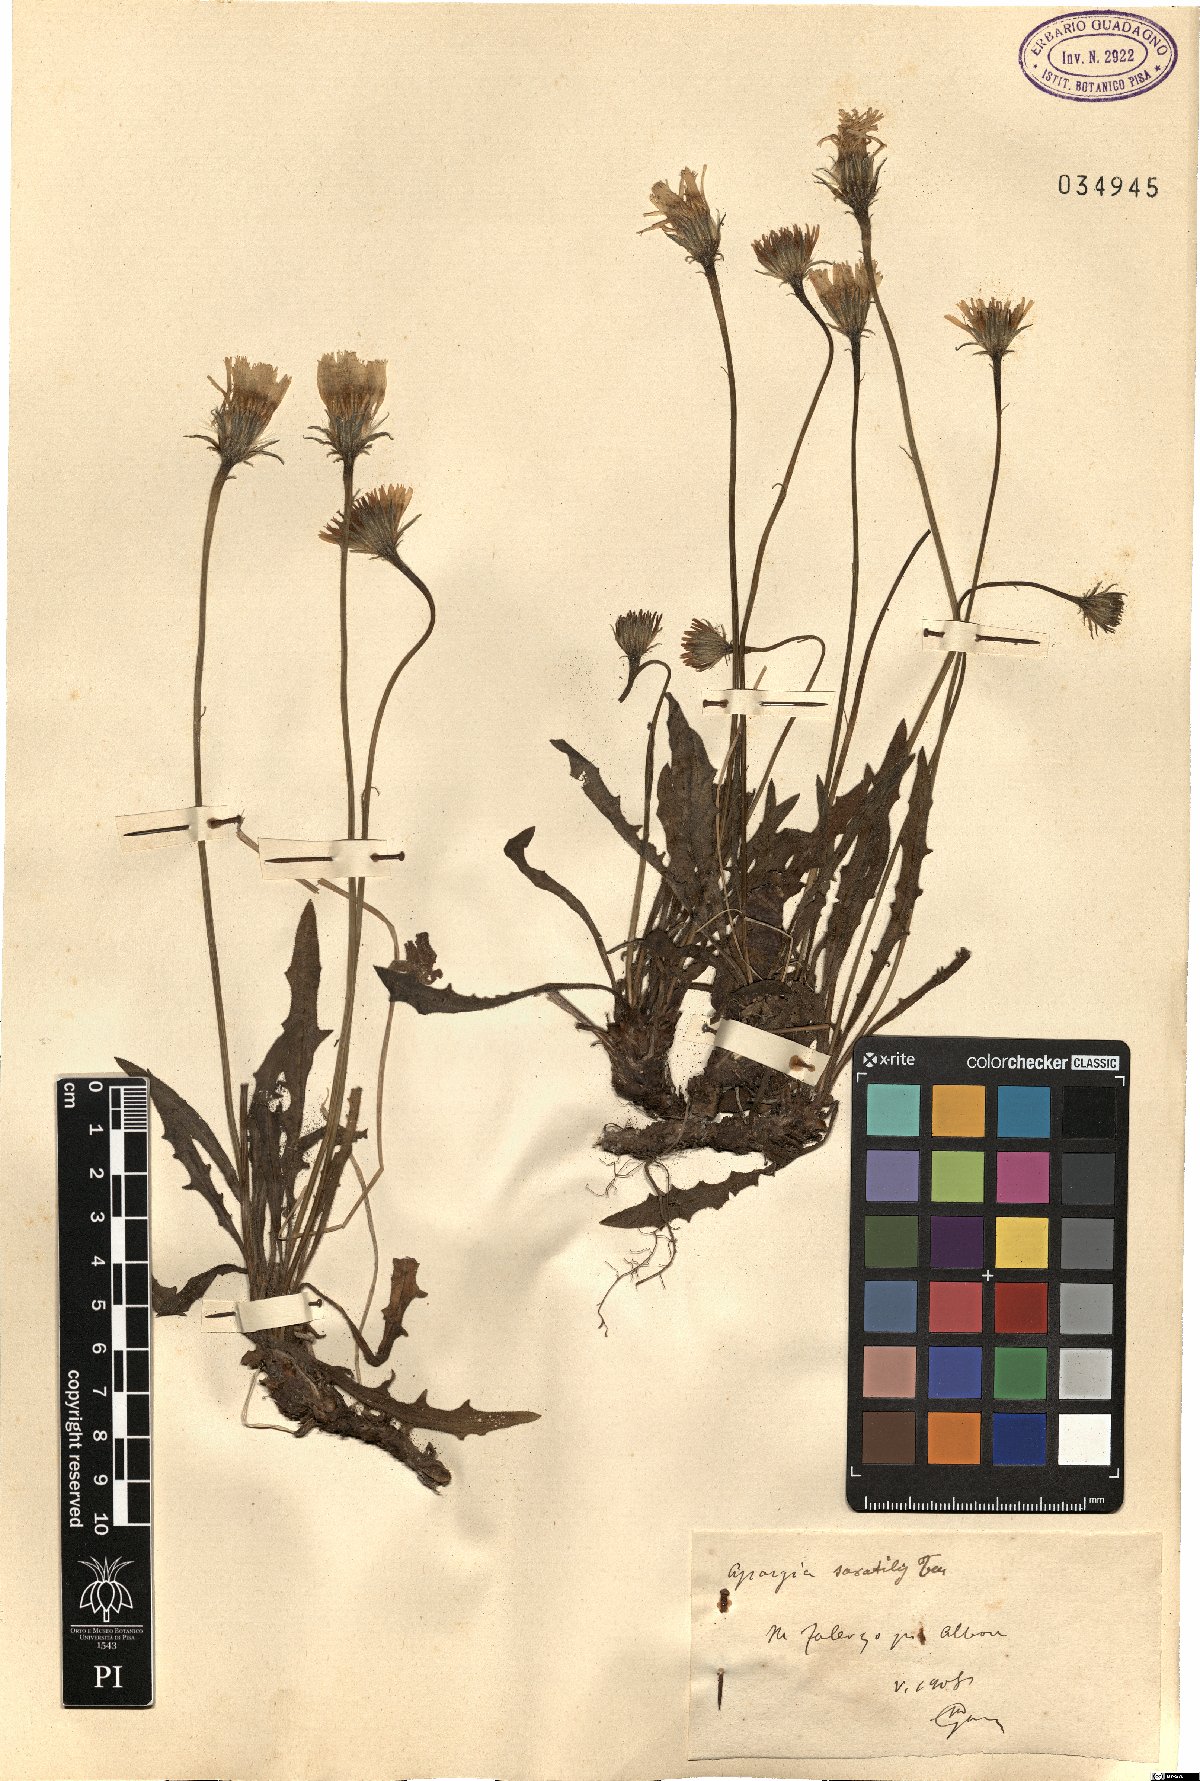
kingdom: Plantae
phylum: Tracheophyta
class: Magnoliopsida
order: Asterales
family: Asteraceae
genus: Leontodon
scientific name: Leontodon crispus
